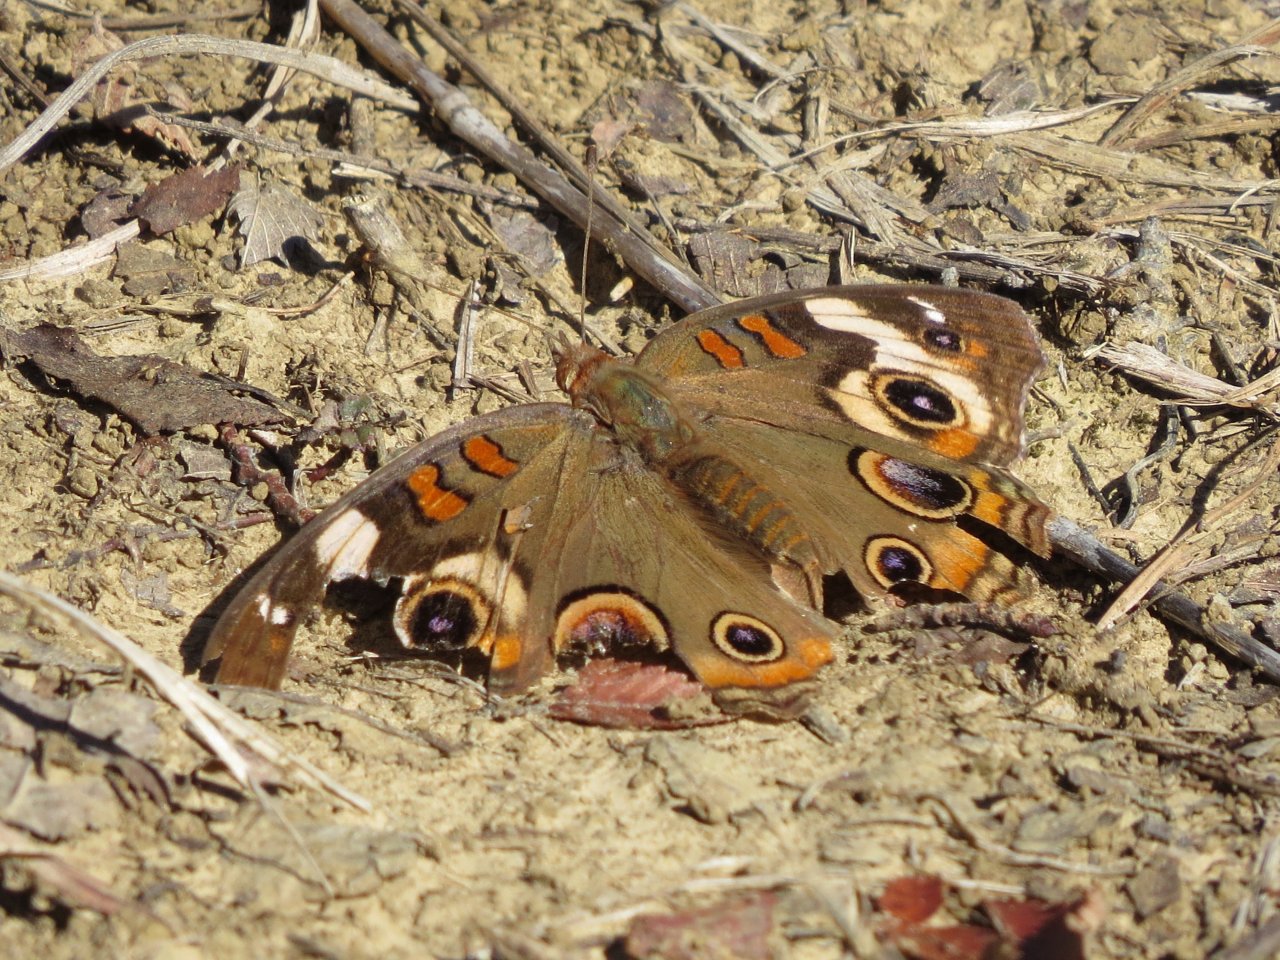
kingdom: Animalia
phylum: Arthropoda
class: Insecta
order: Lepidoptera
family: Nymphalidae
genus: Junonia
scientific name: Junonia coenia
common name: Common Buckeye
